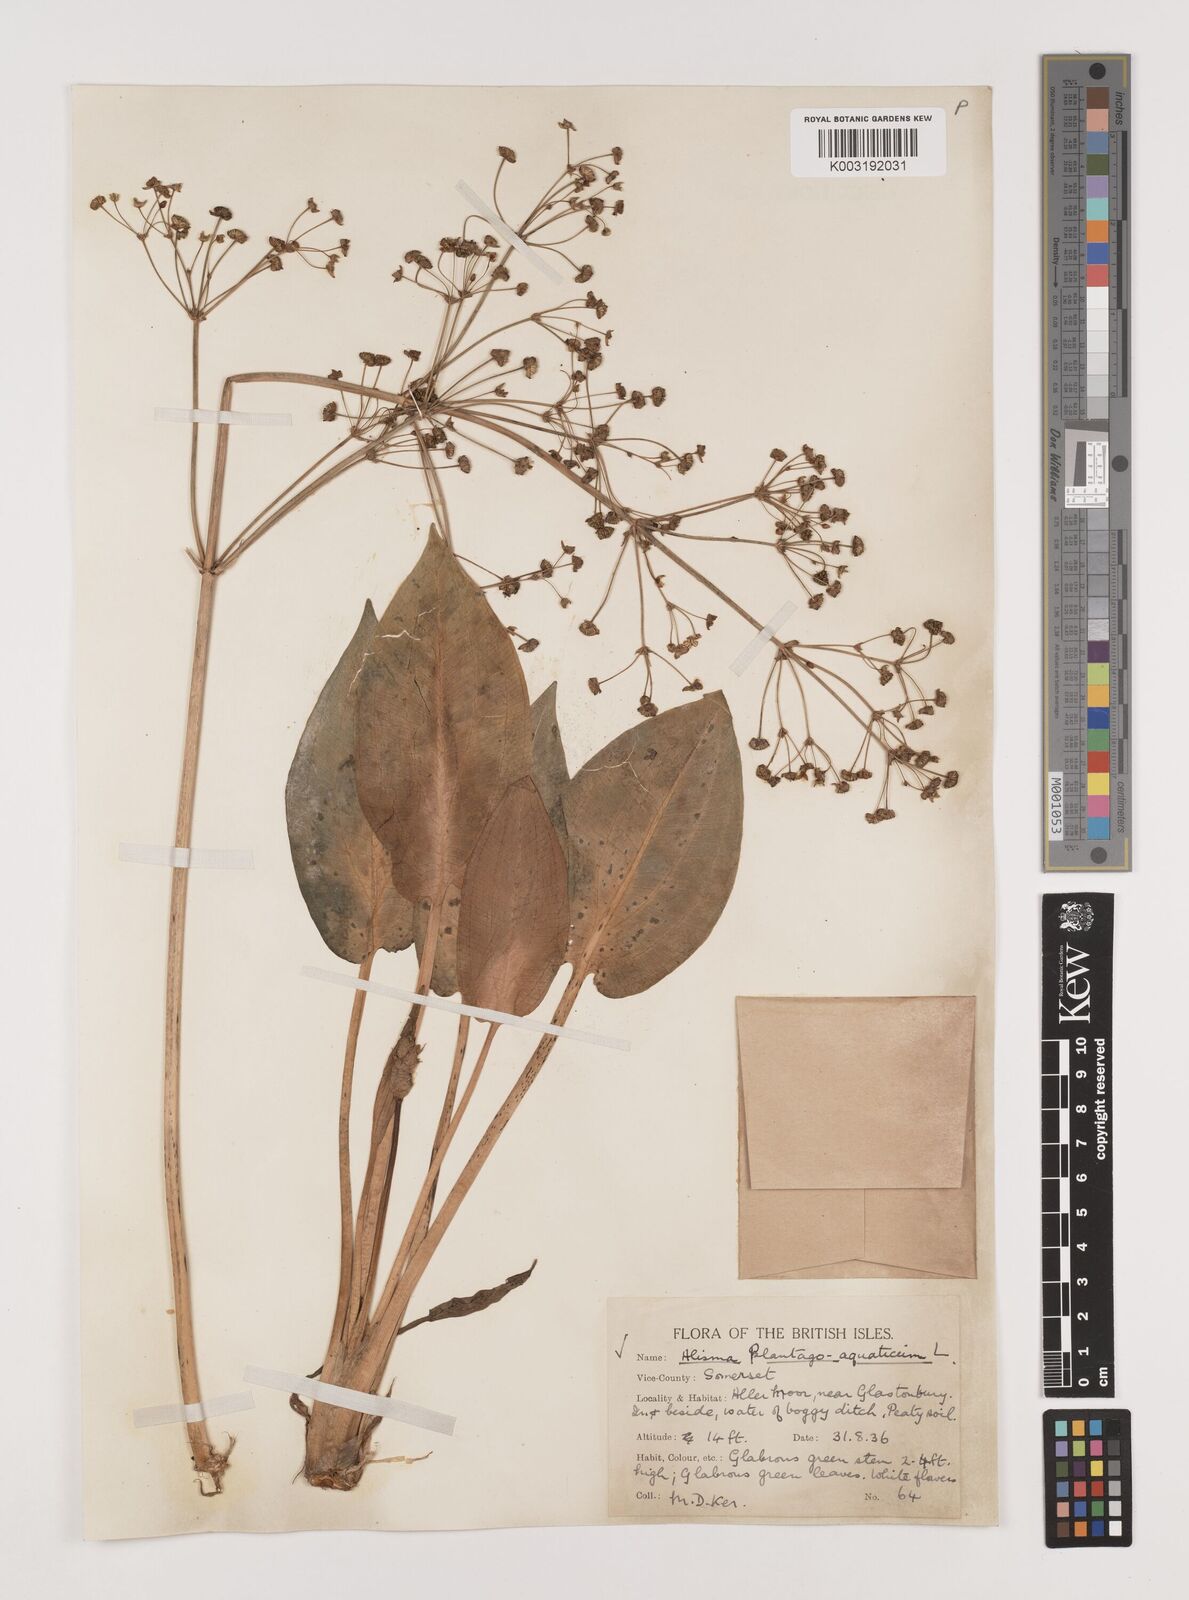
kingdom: Plantae
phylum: Tracheophyta
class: Liliopsida
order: Alismatales
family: Alismataceae
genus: Alisma
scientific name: Alisma plantago-aquatica
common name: Water-plantain
